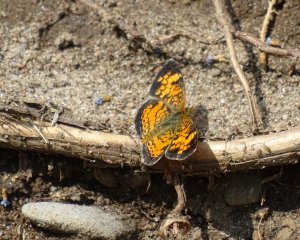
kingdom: Animalia
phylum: Arthropoda
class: Insecta
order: Lepidoptera
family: Nymphalidae
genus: Phyciodes
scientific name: Phyciodes tharos
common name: Northern Crescent
